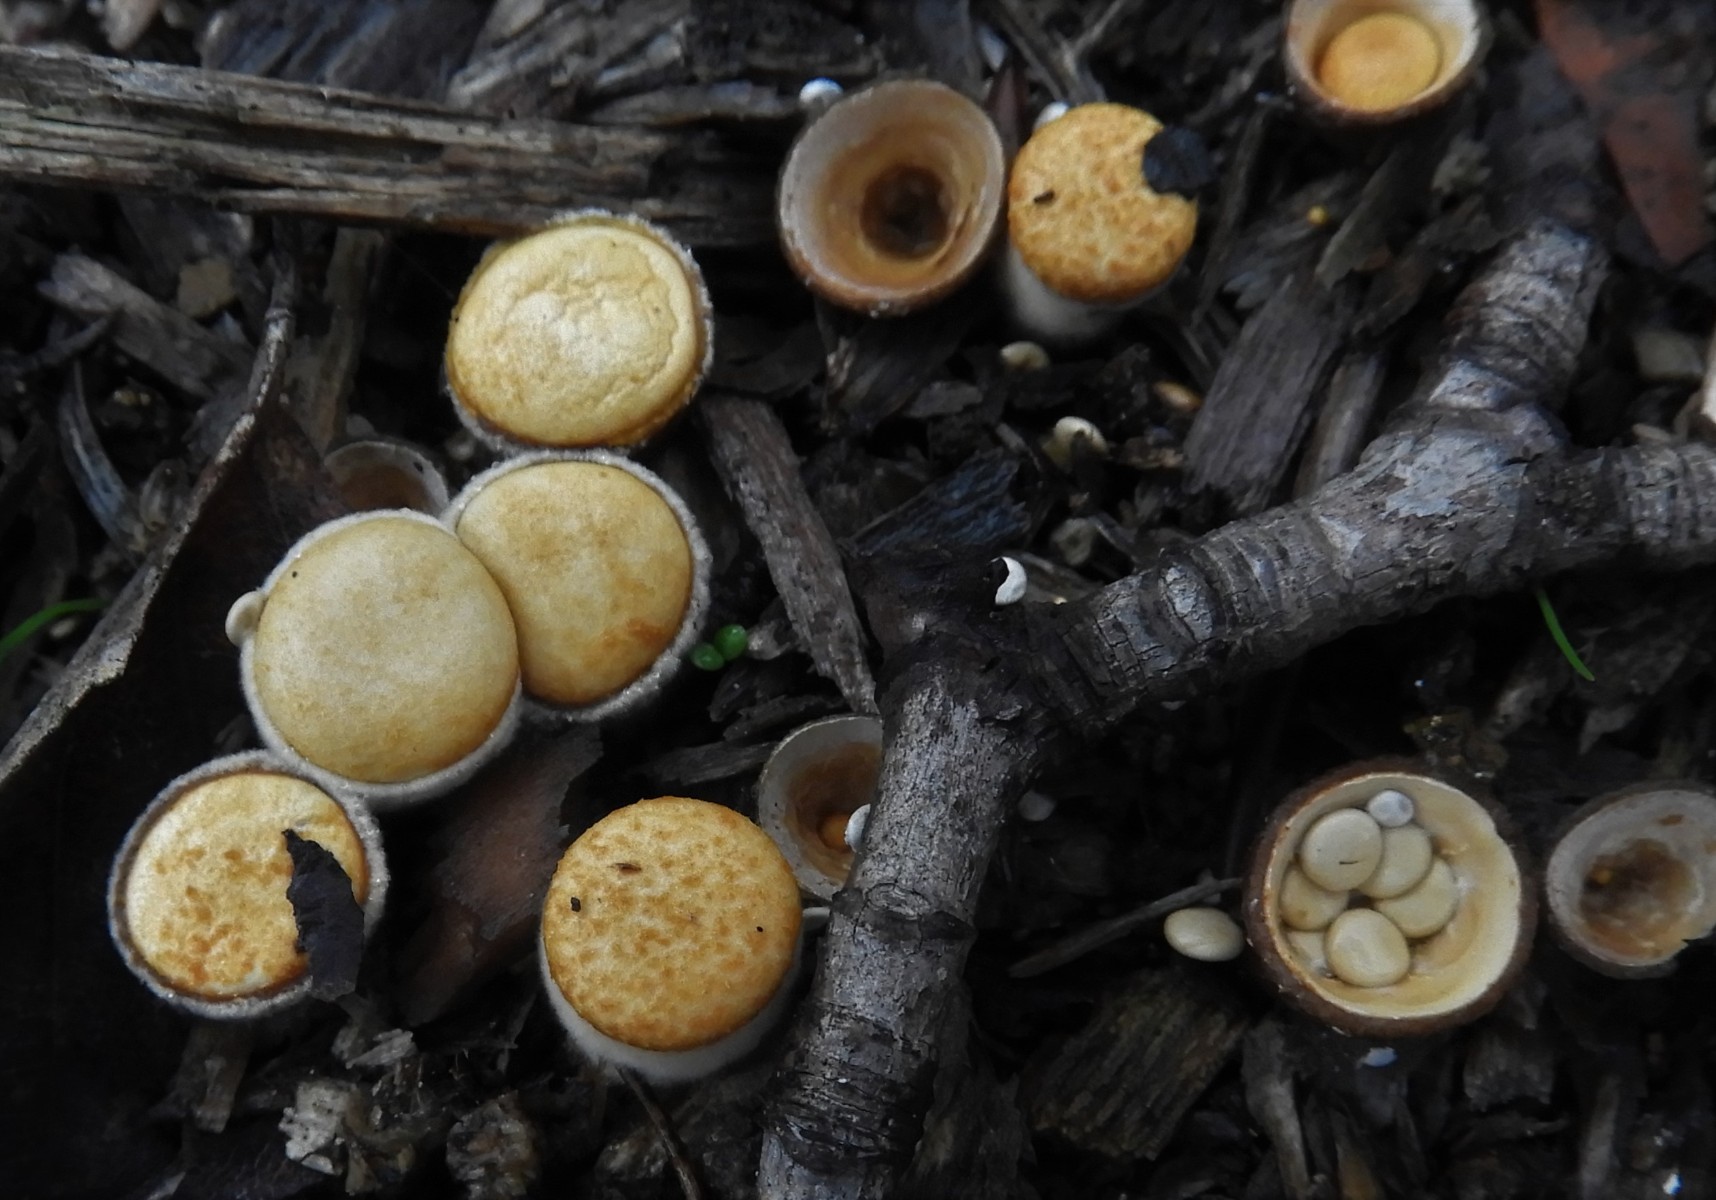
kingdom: Fungi
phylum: Basidiomycota
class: Agaricomycetes
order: Agaricales
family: Nidulariaceae
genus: Crucibulum
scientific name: Crucibulum crucibuliforme
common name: krukkesvamp
